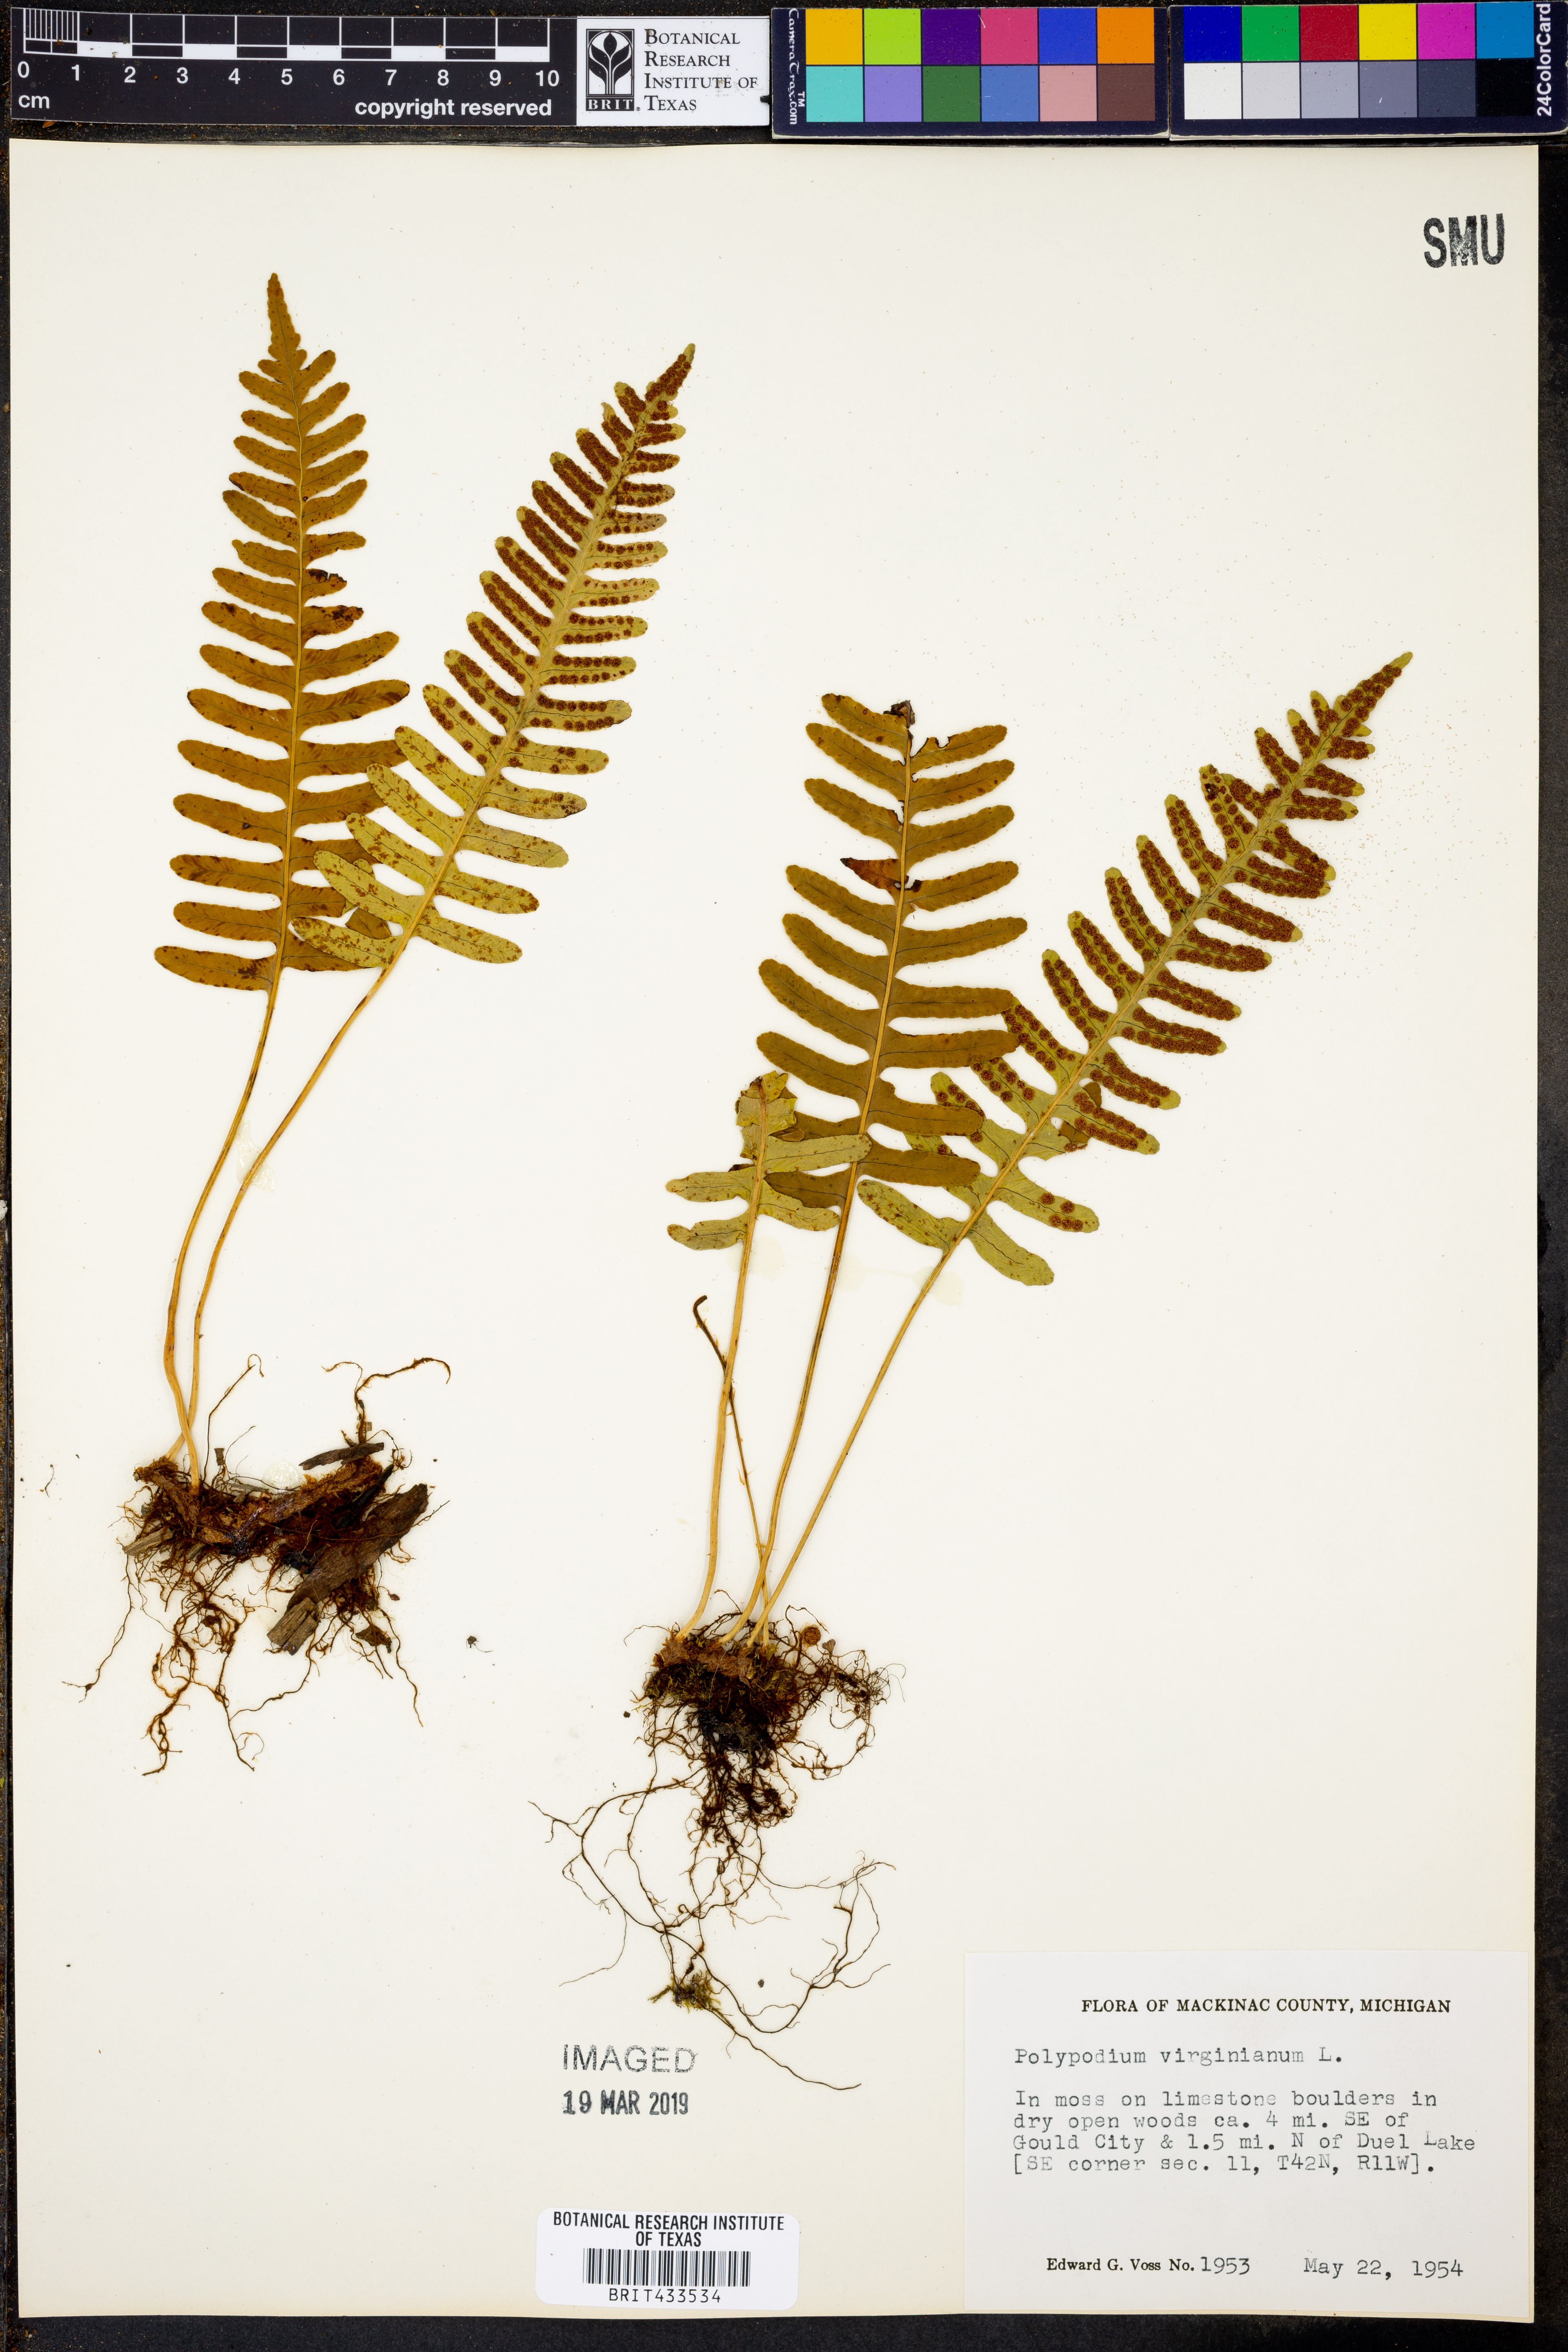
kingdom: Plantae
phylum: Tracheophyta
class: Polypodiopsida
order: Polypodiales
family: Polypodiaceae
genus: Polypodium
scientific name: Polypodium virginianum
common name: American wall fern
